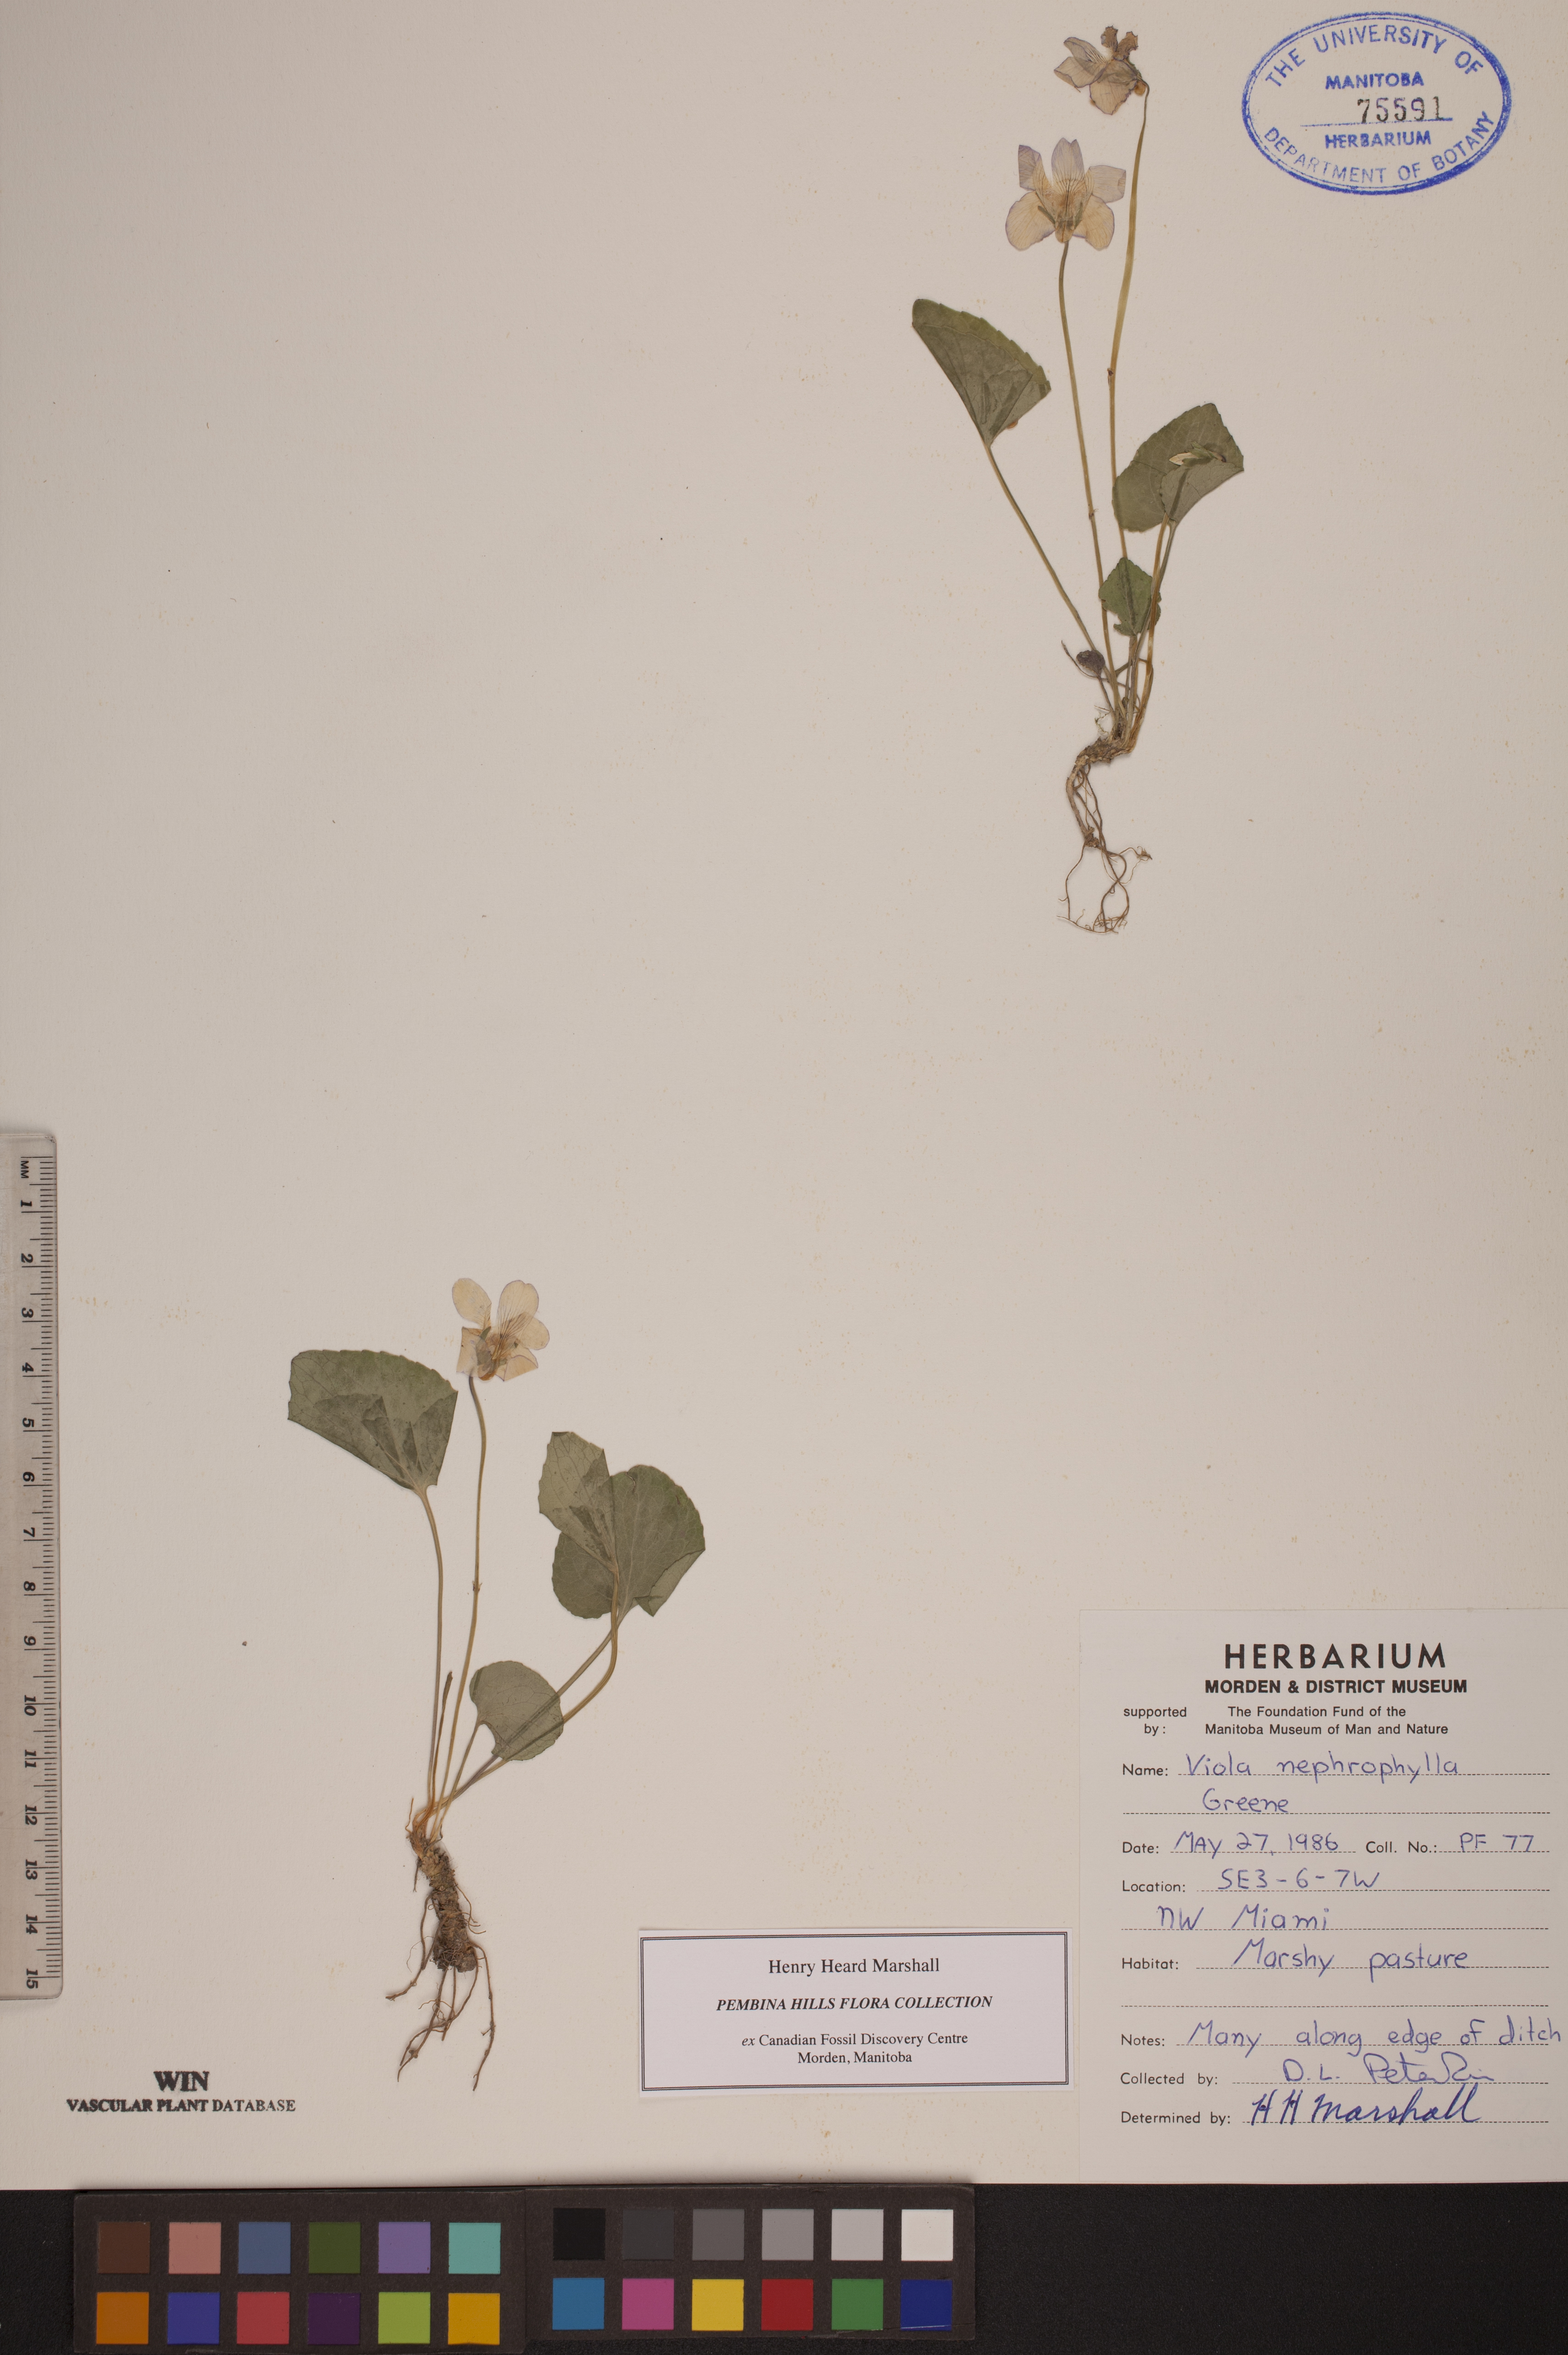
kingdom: Plantae
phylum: Tracheophyta
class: Magnoliopsida
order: Malpighiales
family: Violaceae
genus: Viola
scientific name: Viola nephrophylla
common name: Blue meadow violet
